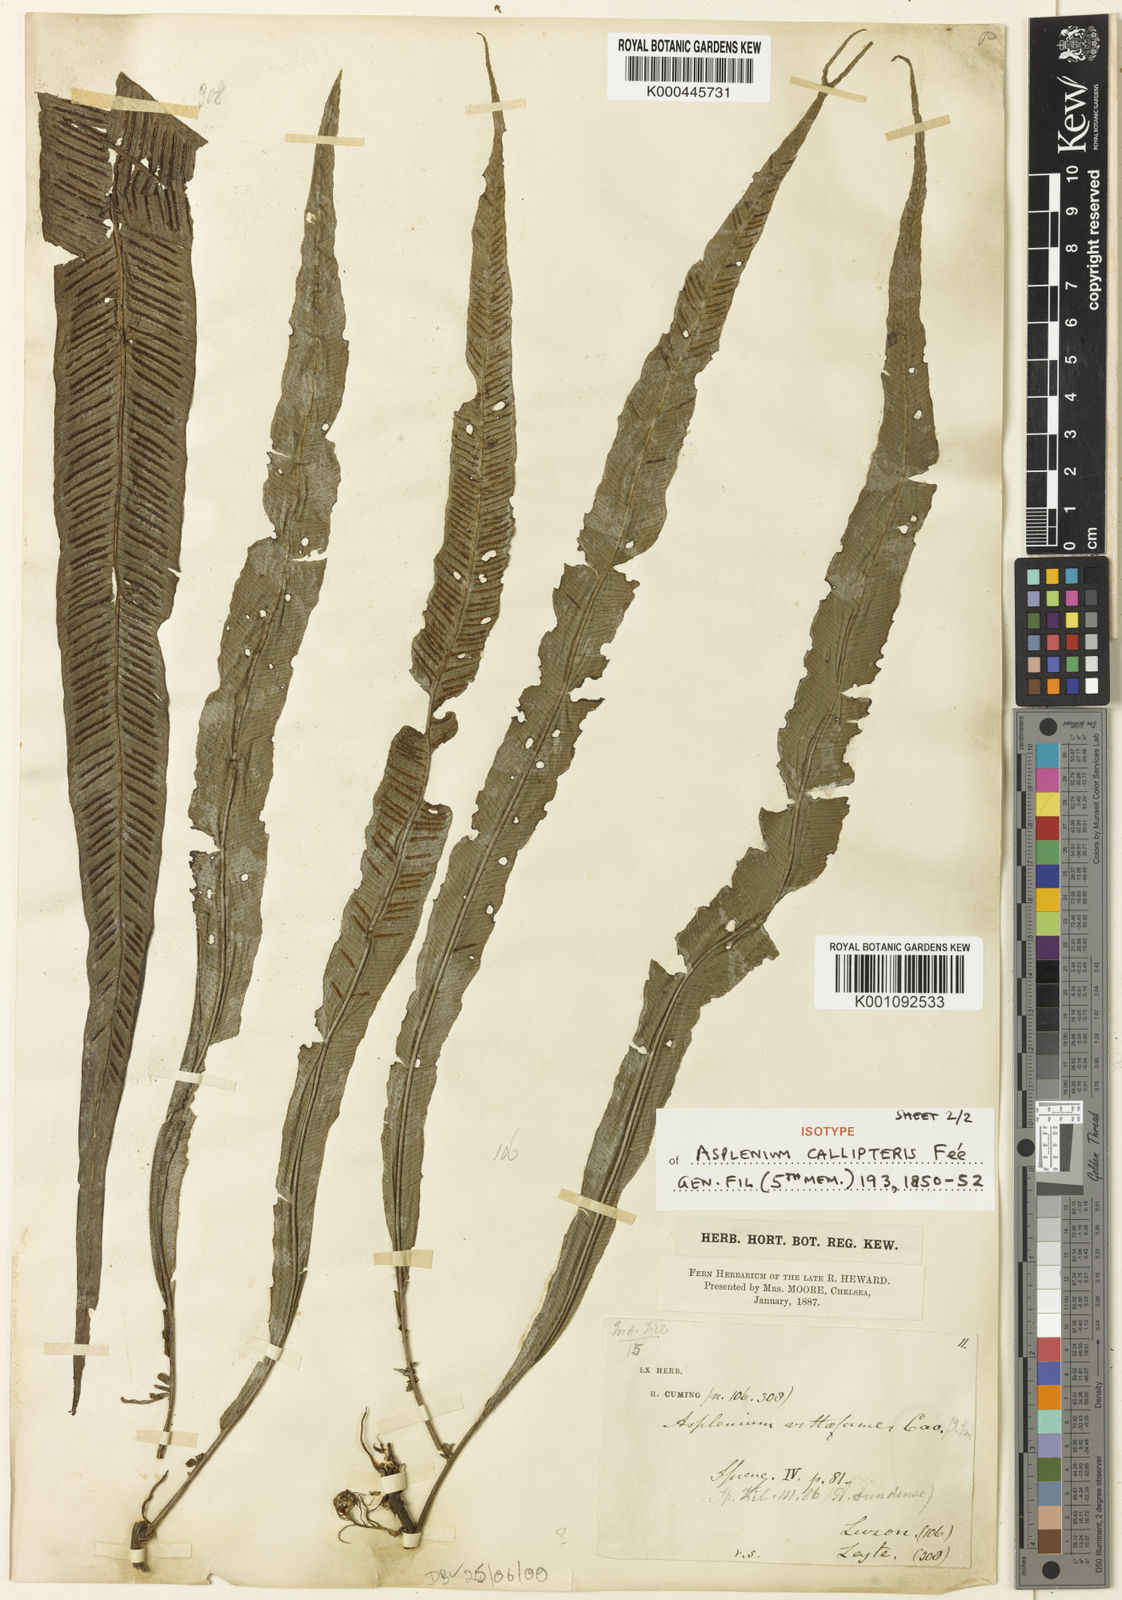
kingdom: Plantae
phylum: Tracheophyta
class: Polypodiopsida
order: Polypodiales
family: Aspleniaceae
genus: Asplenium
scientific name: Asplenium
